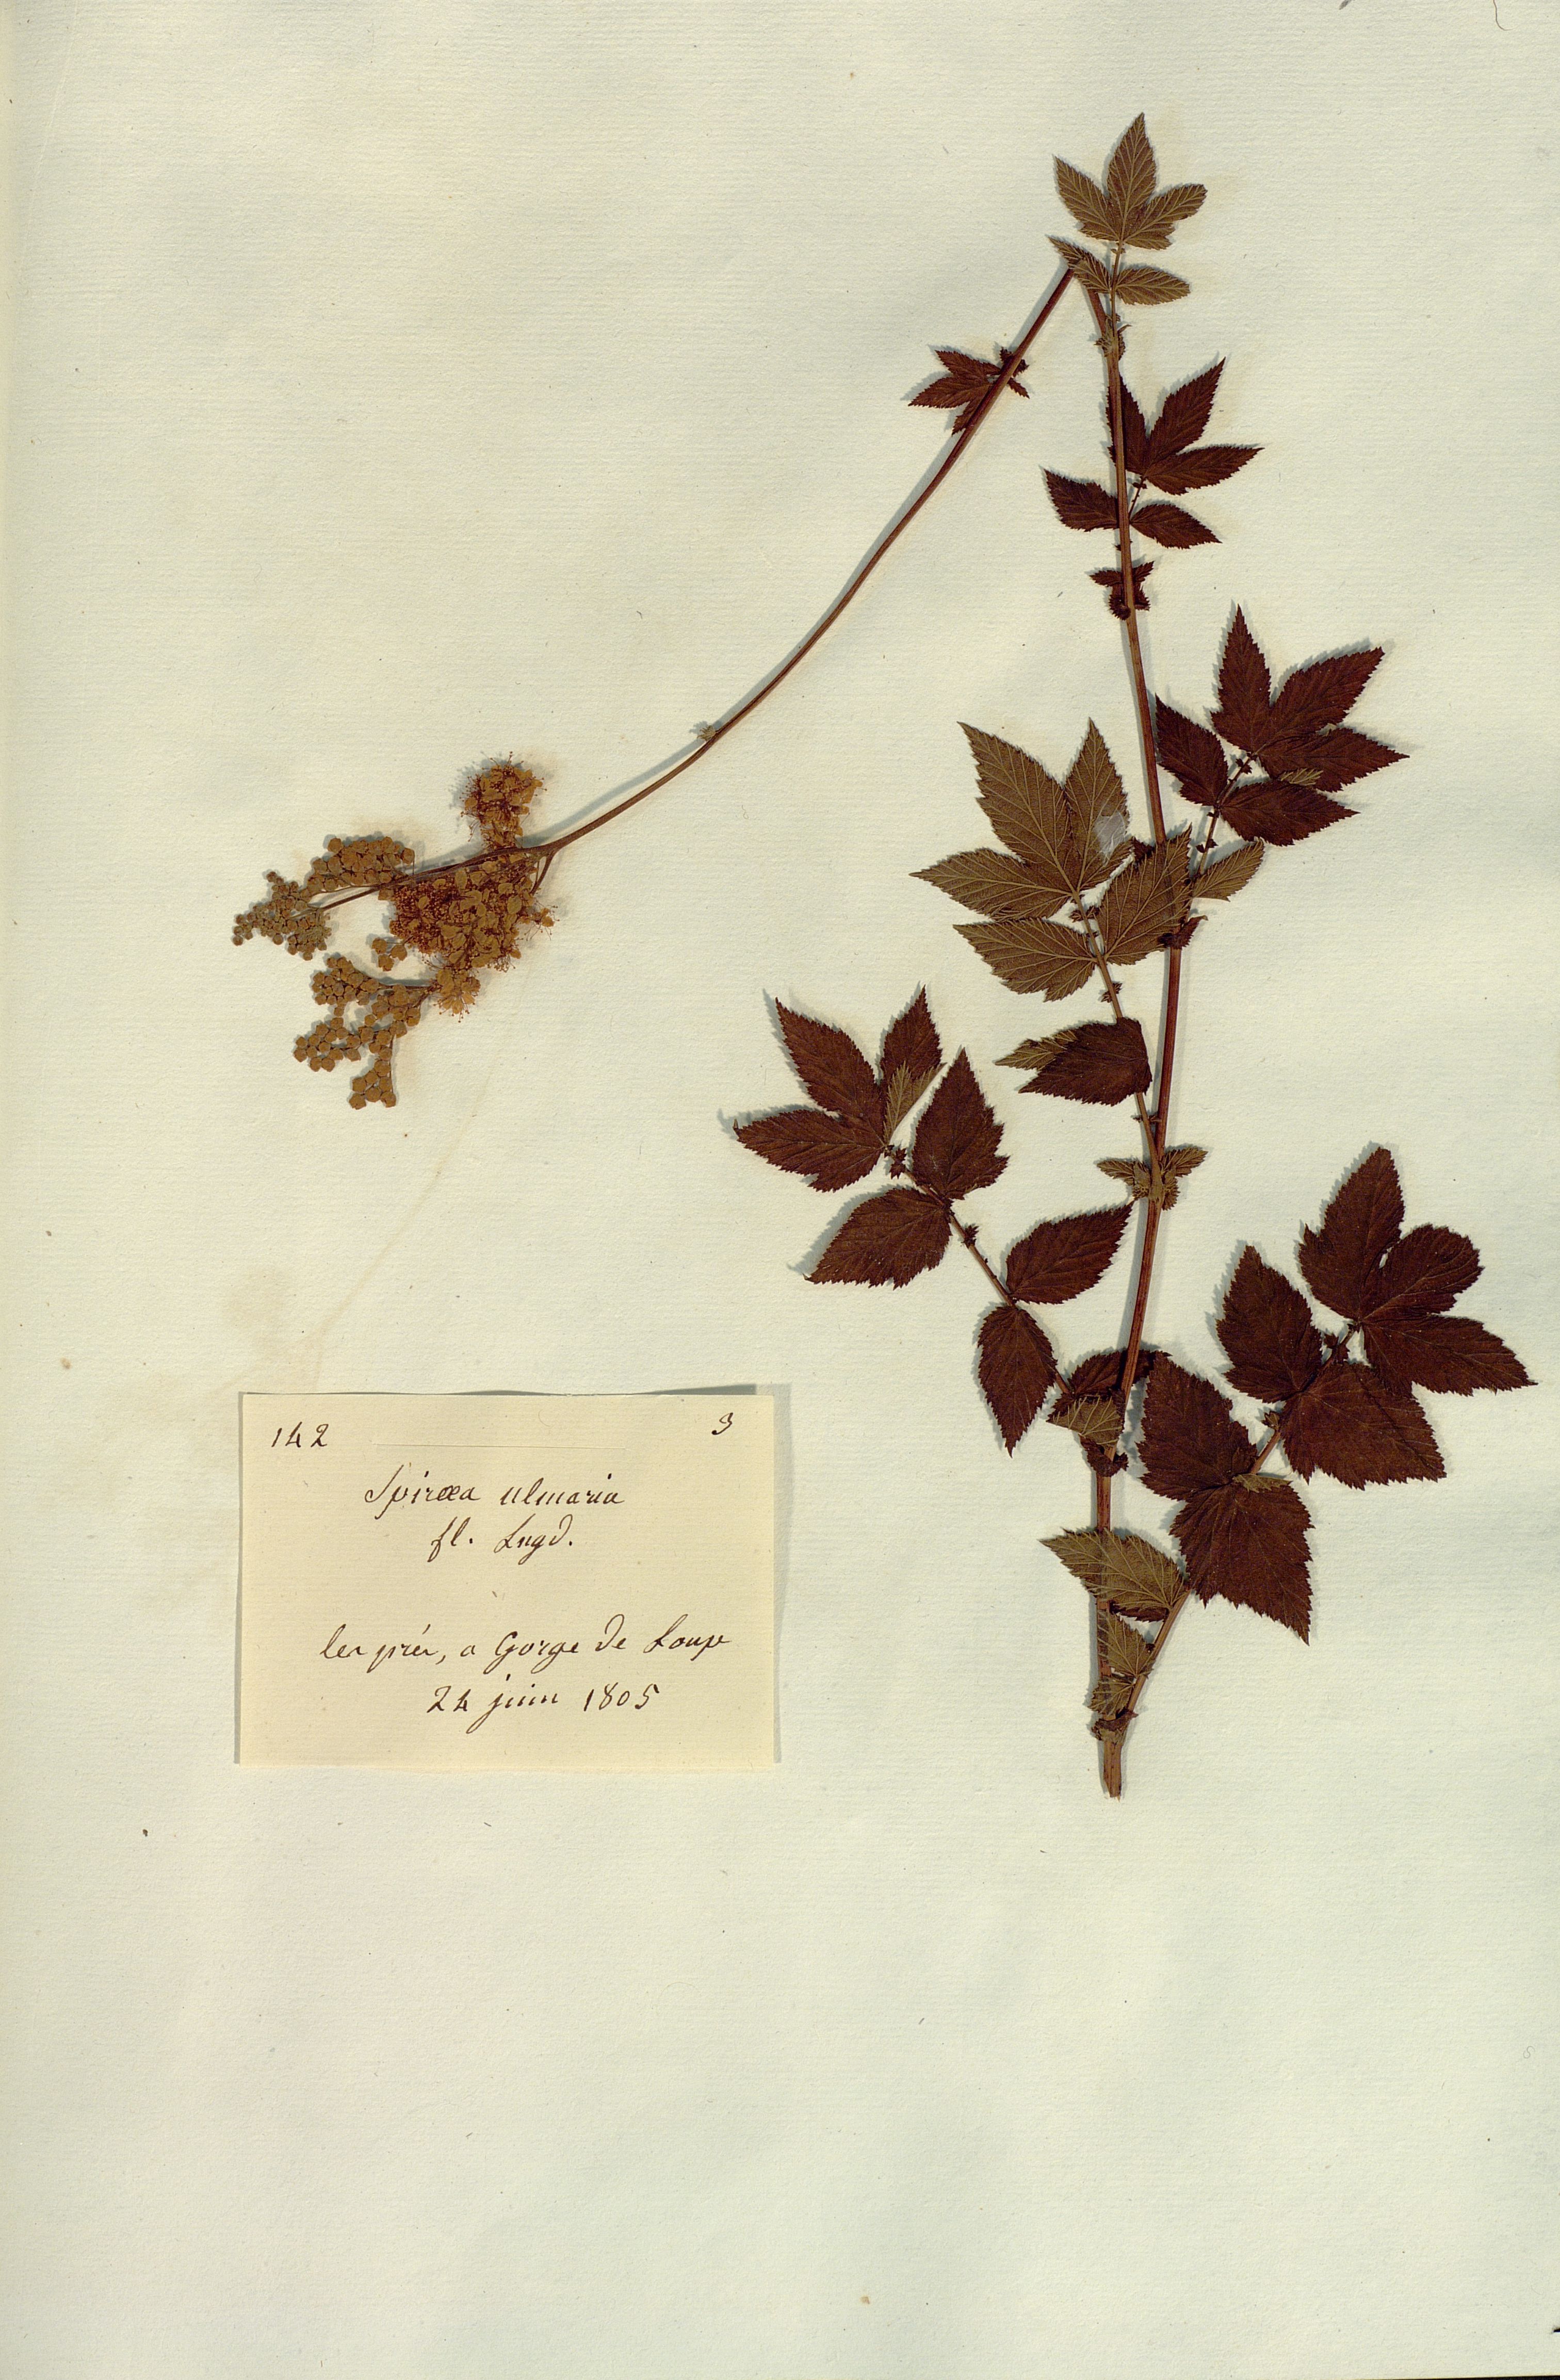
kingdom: Plantae
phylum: Tracheophyta
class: Magnoliopsida
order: Rosales
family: Rosaceae
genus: Filipendula
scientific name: Filipendula ulmaria
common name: Meadowsweet
